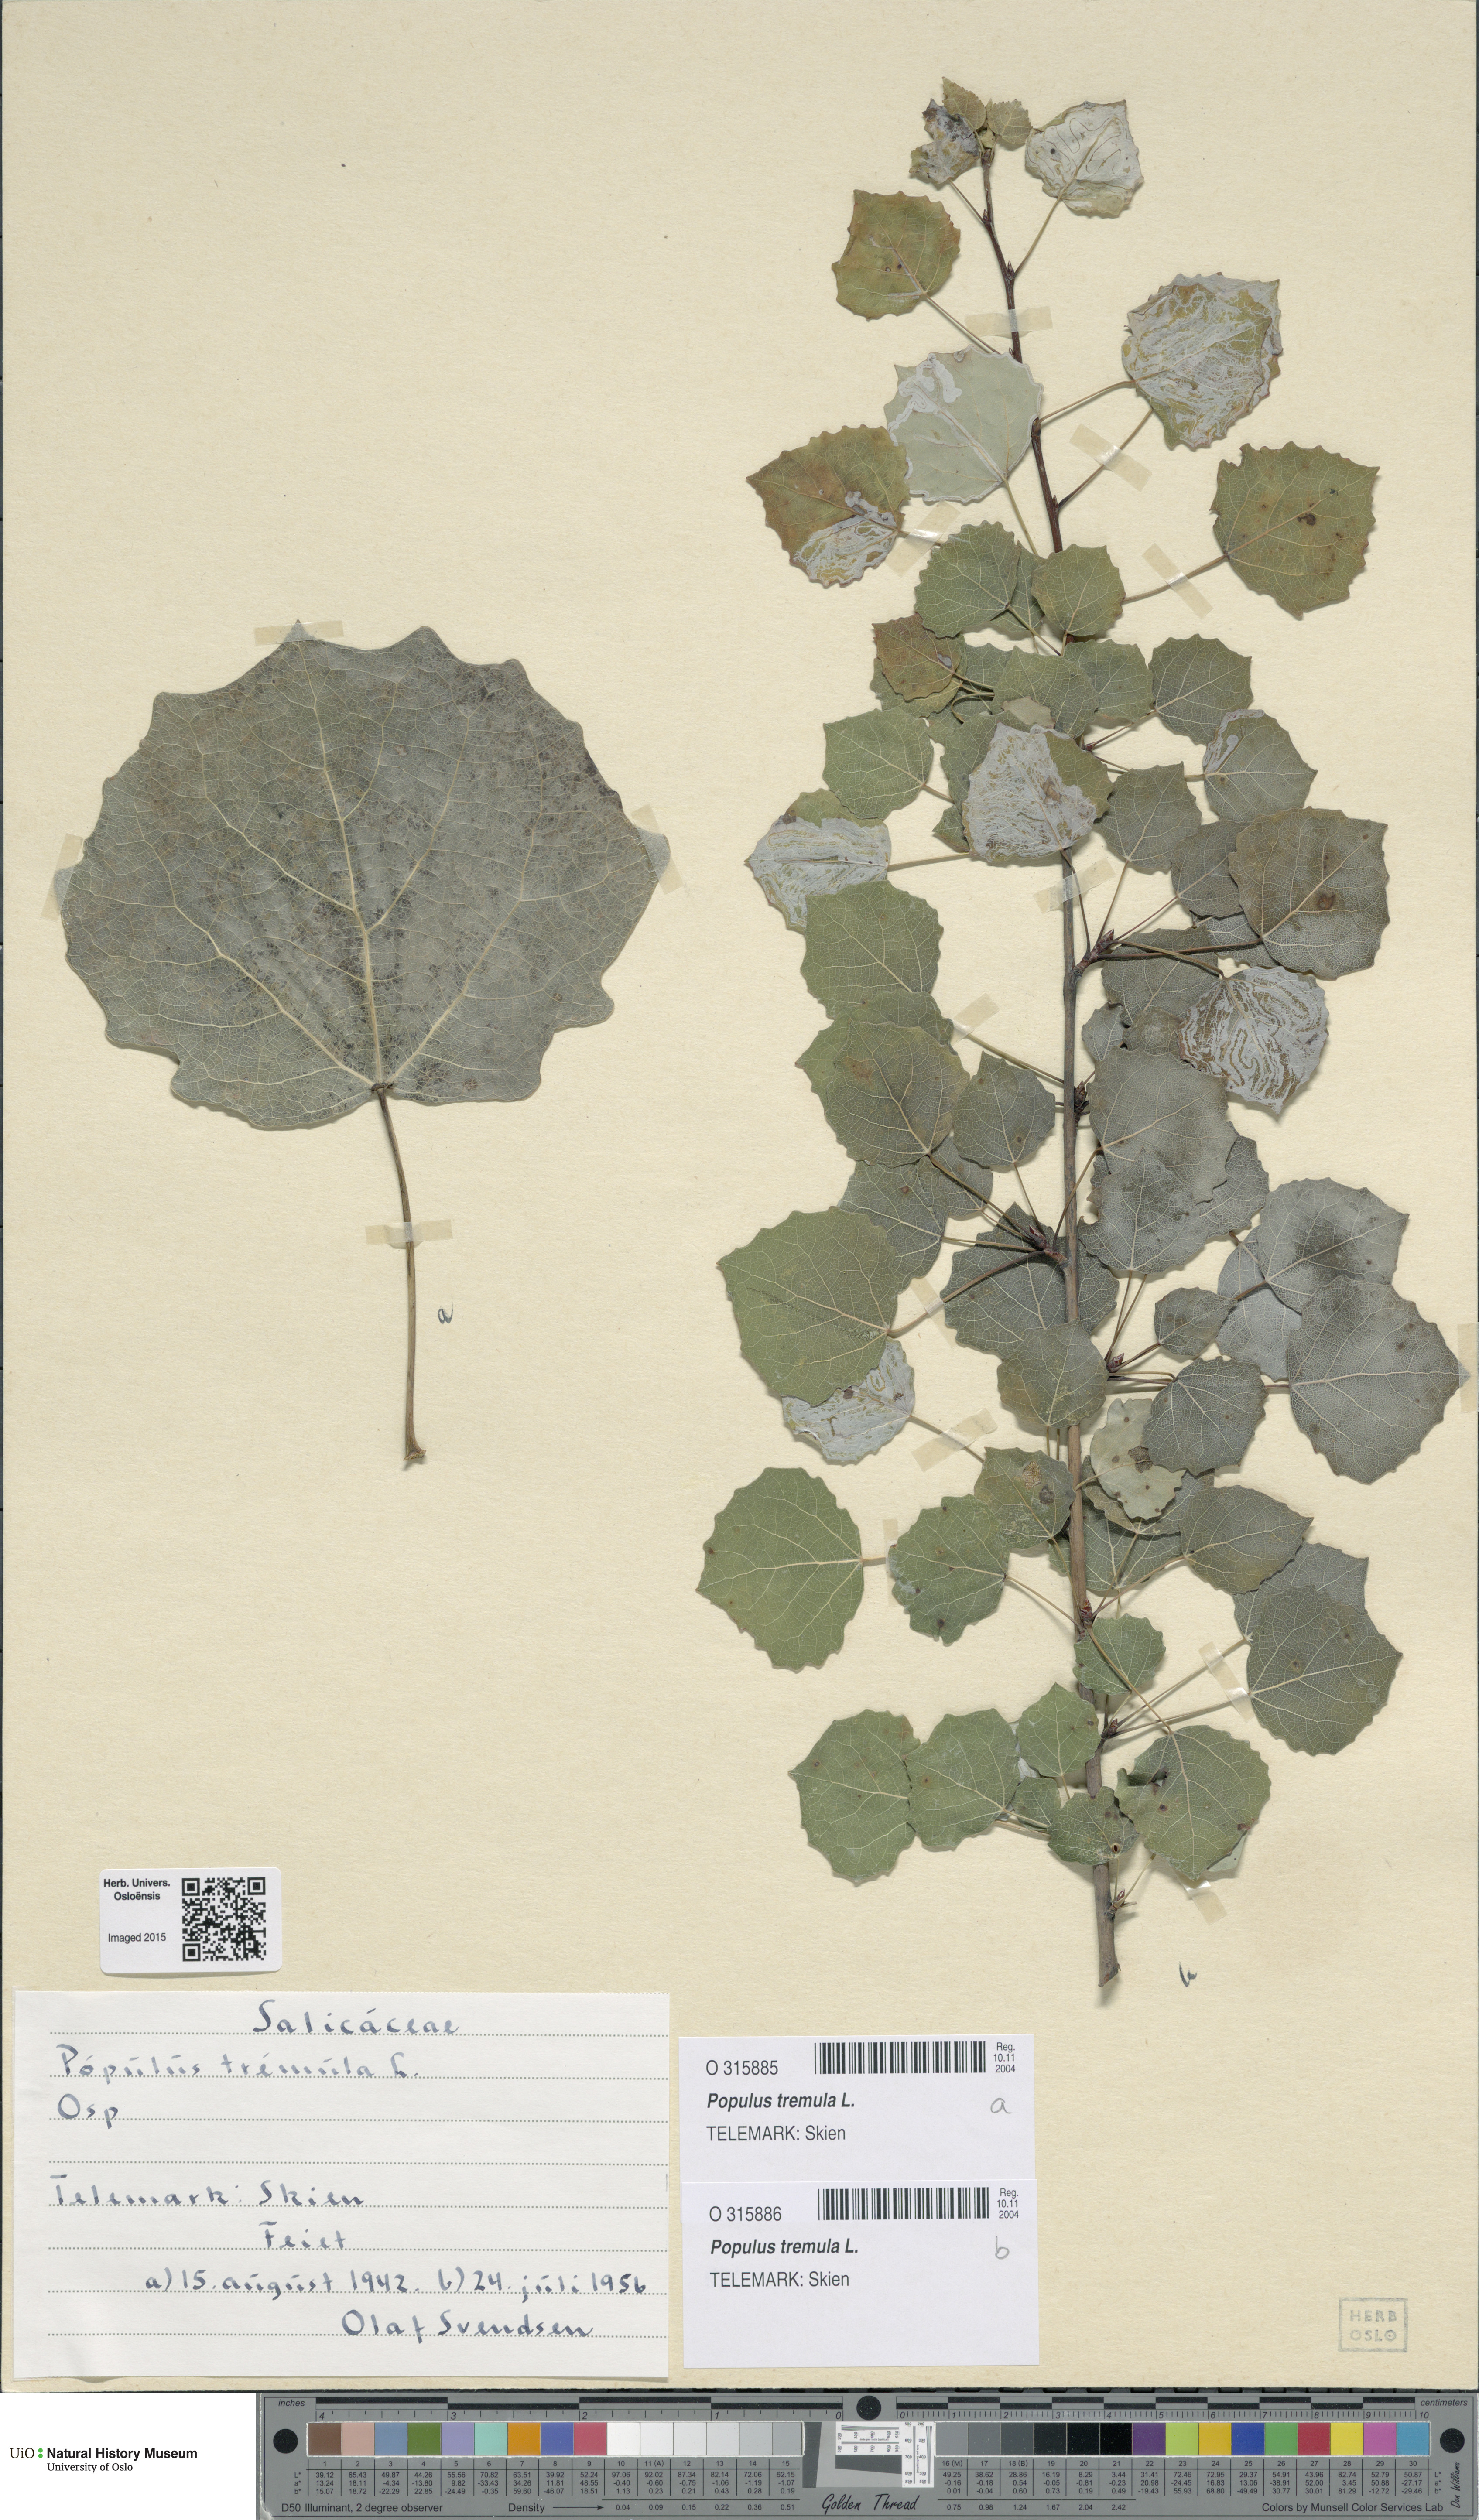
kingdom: Plantae
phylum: Tracheophyta
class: Magnoliopsida
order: Malpighiales
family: Salicaceae
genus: Populus
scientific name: Populus tremula
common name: European aspen
